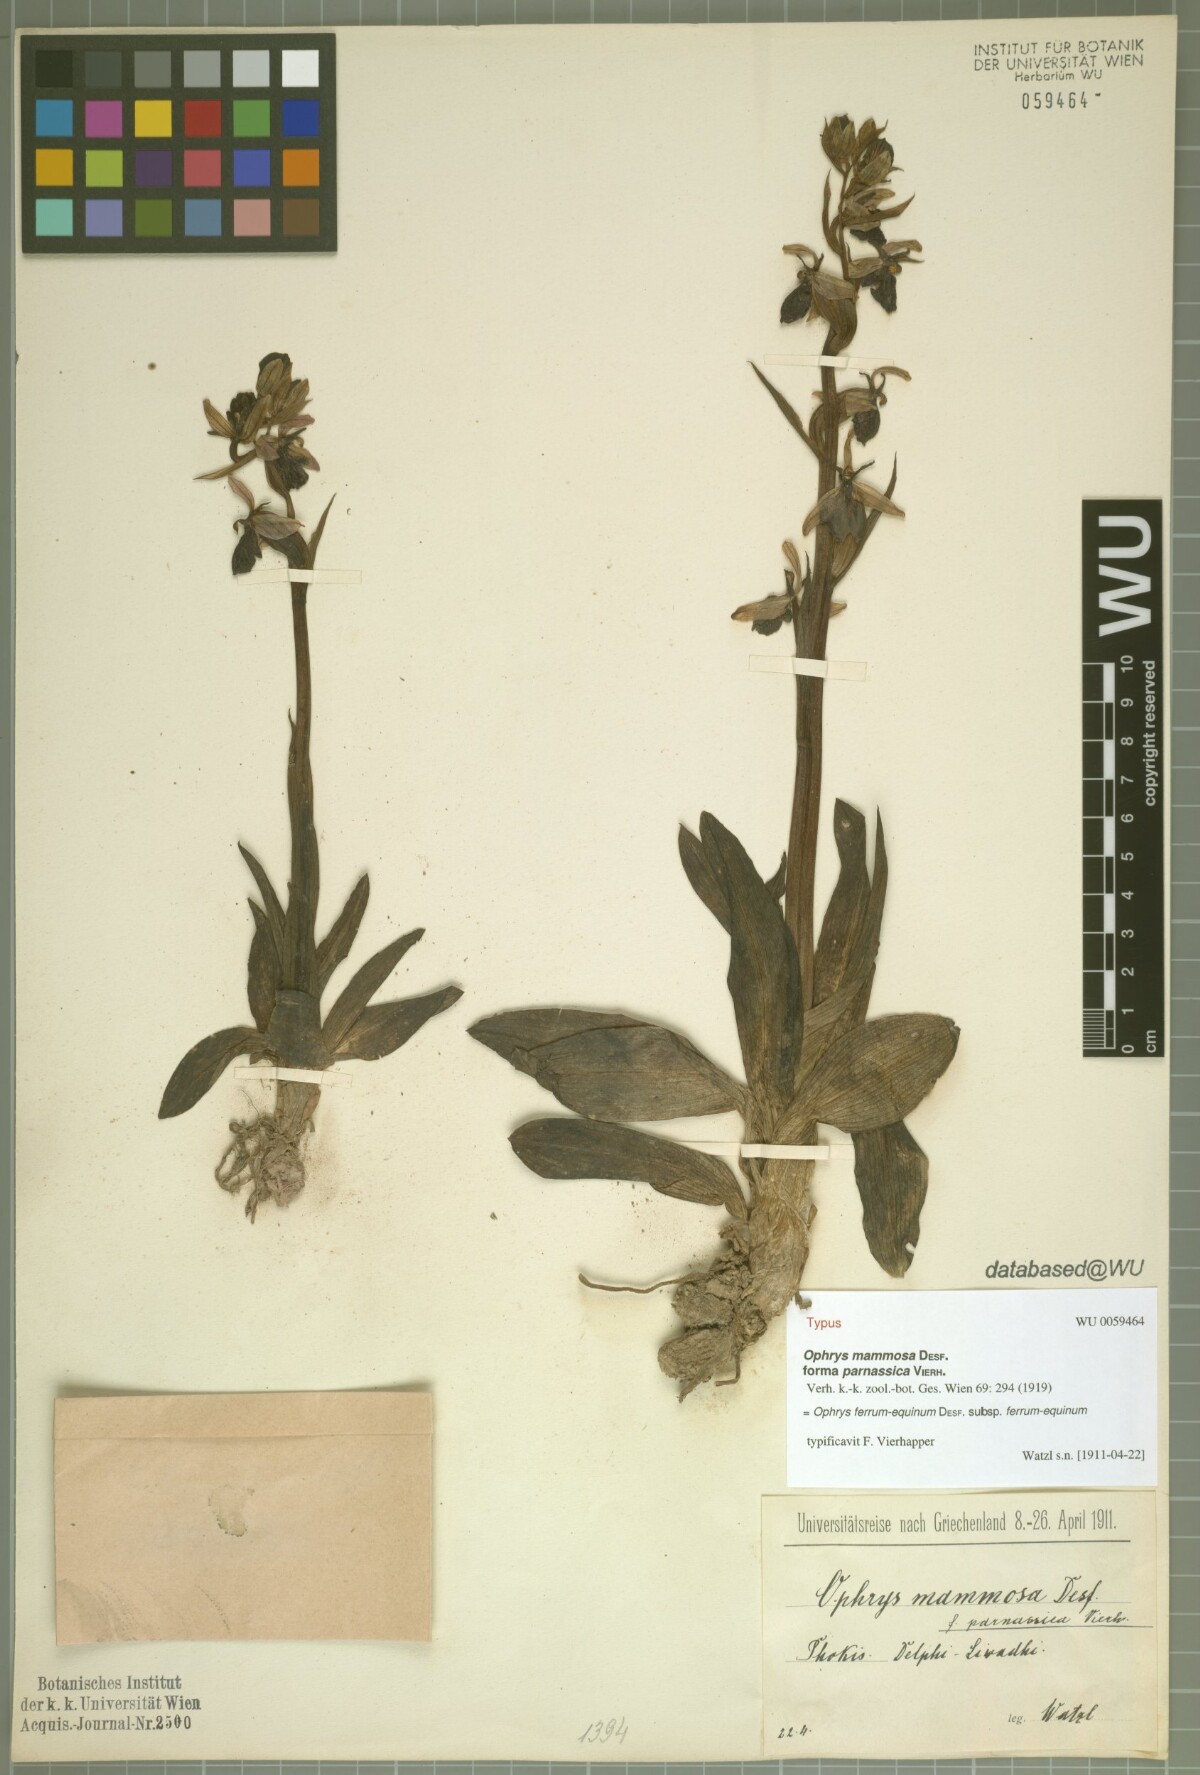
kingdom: Plantae
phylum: Tracheophyta
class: Liliopsida
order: Asparagales
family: Orchidaceae
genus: Ophrys
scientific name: Ophrys ferrum-equinum
